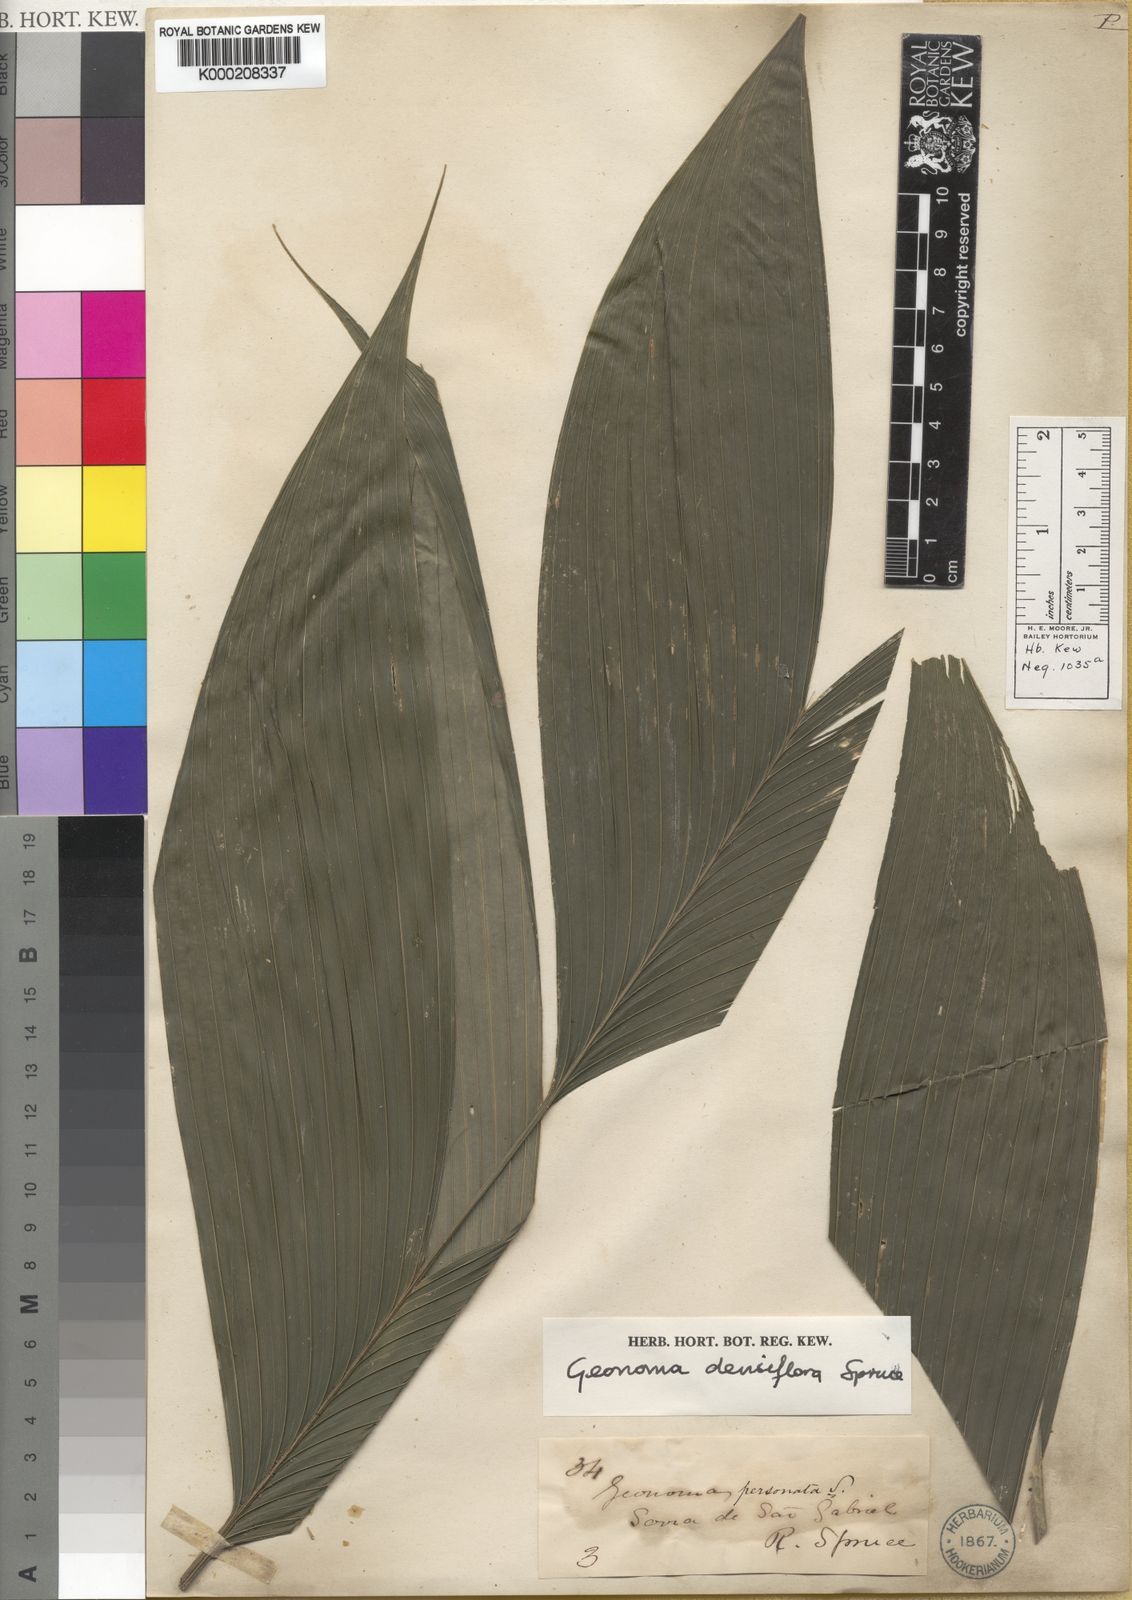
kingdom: Plantae
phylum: Tracheophyta
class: Liliopsida
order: Arecales
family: Arecaceae
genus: Geonoma
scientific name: Geonoma maxima
